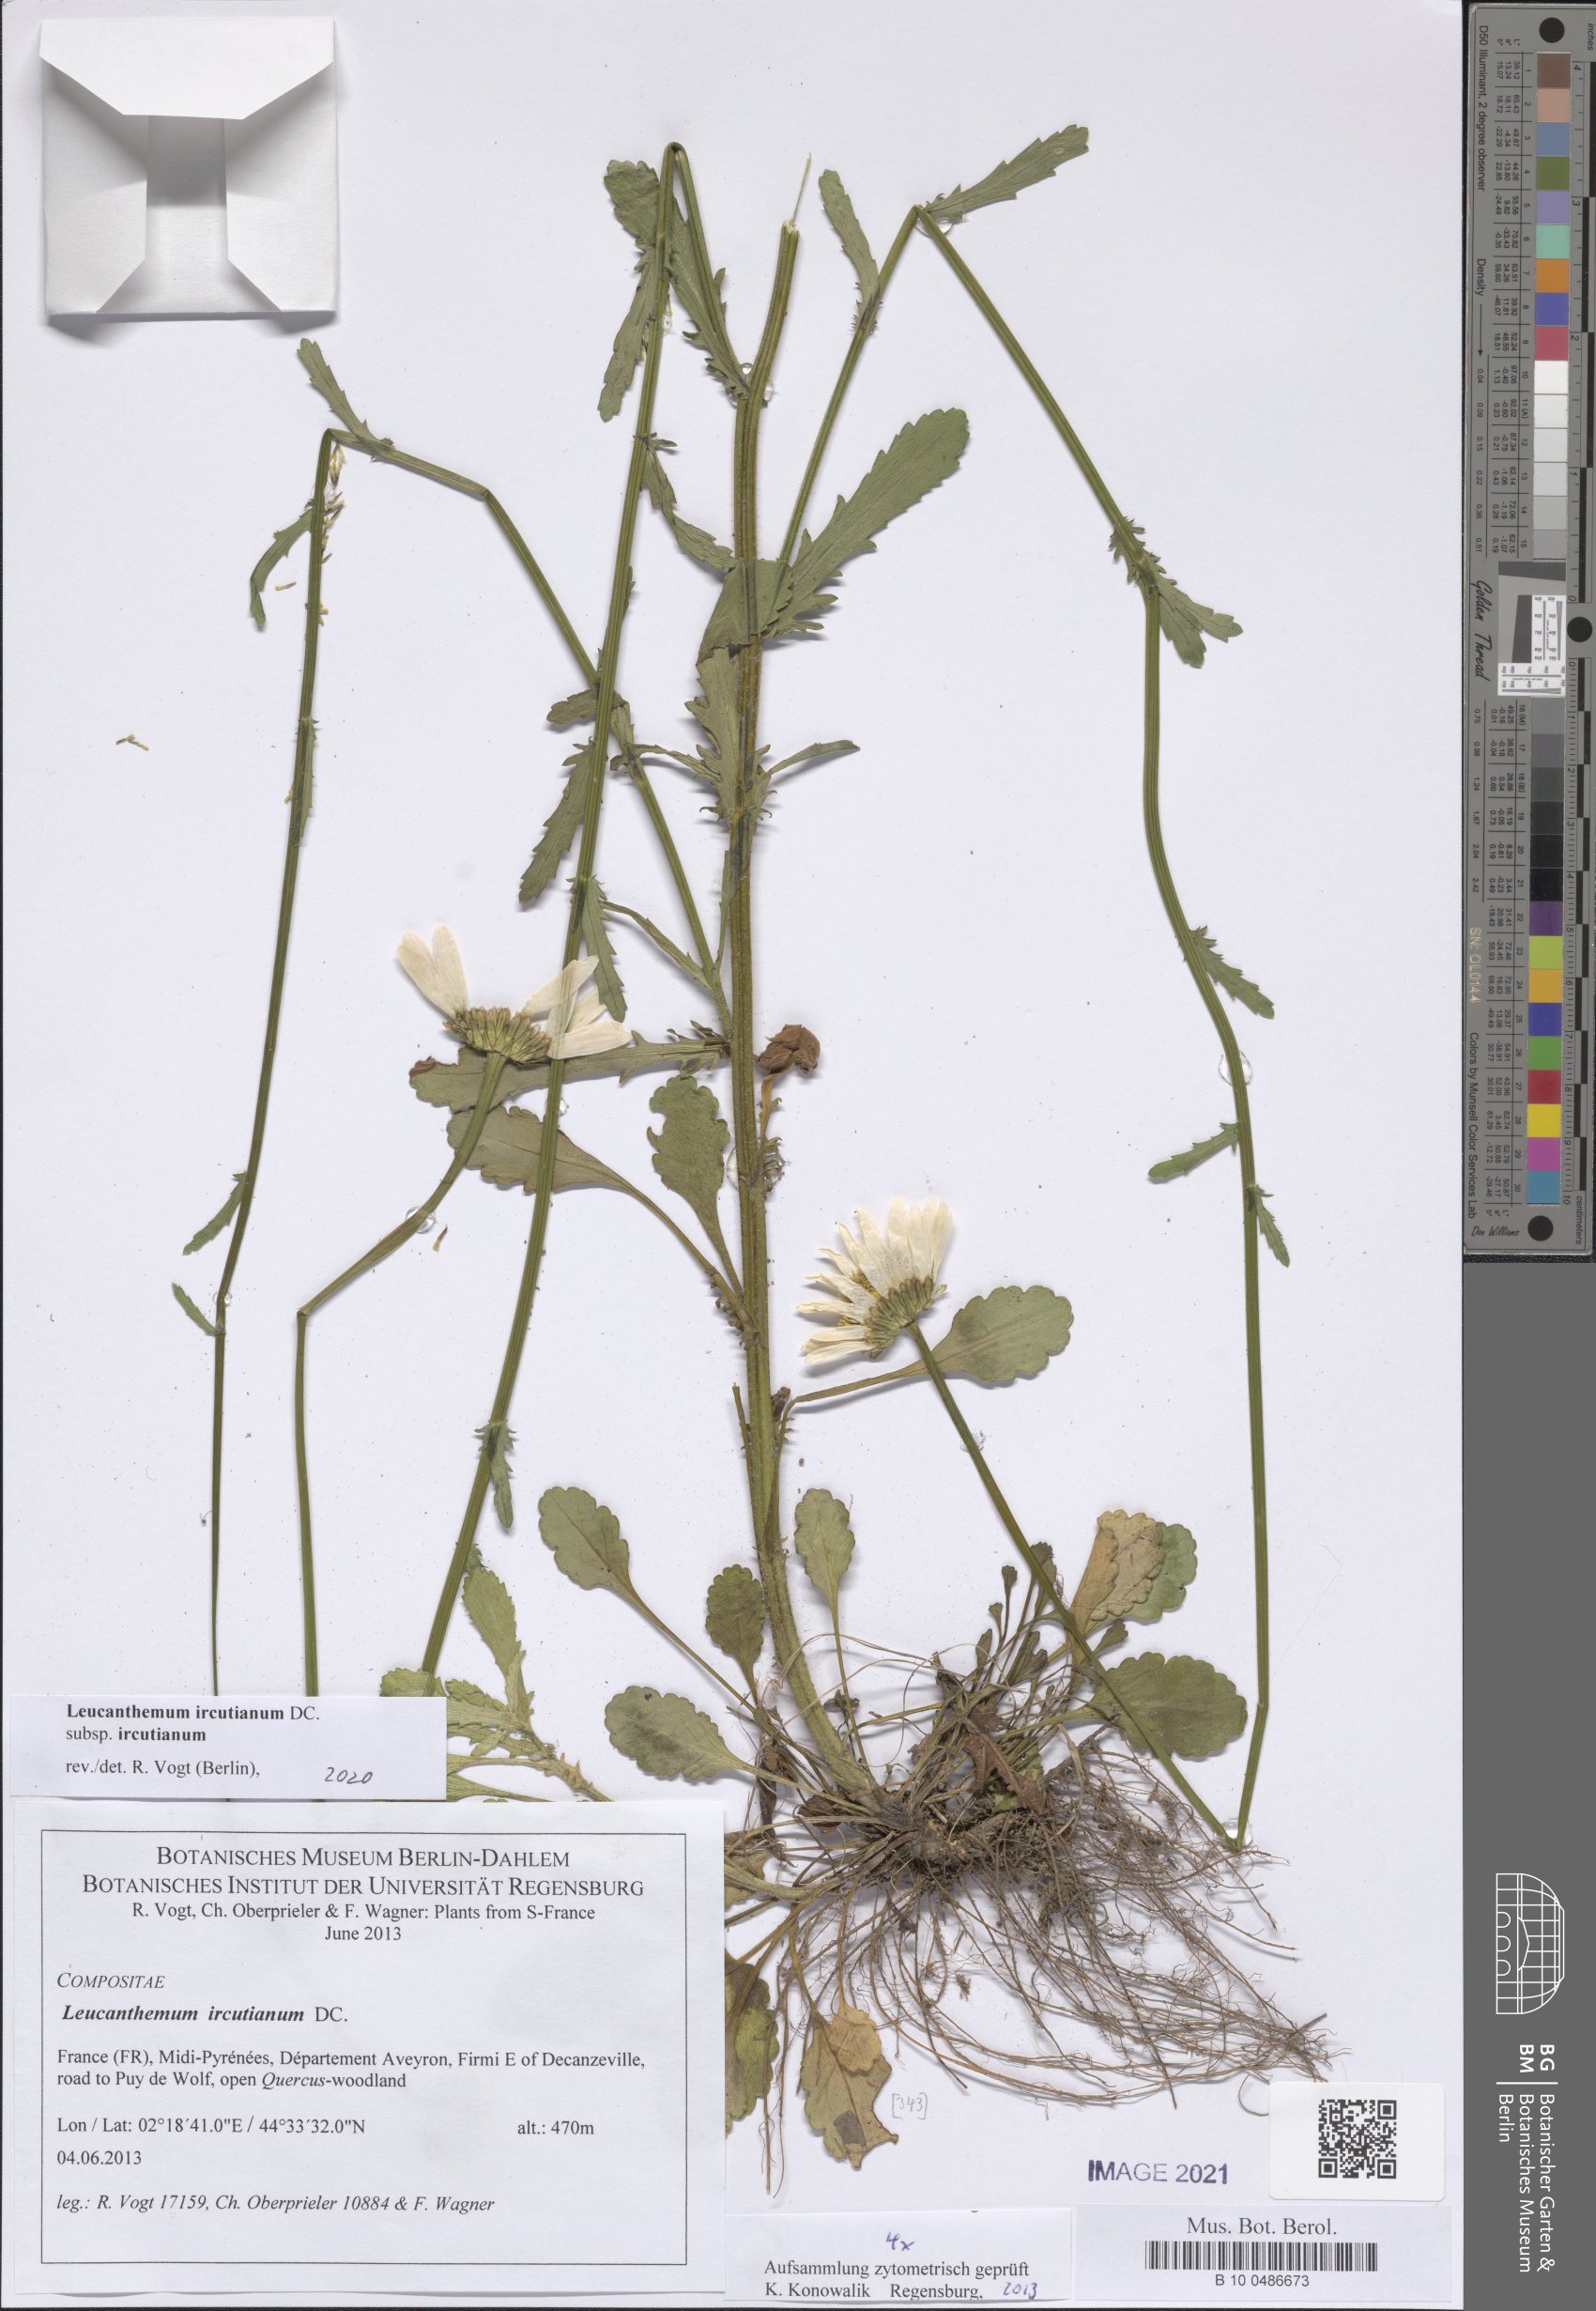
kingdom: Plantae
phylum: Tracheophyta
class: Magnoliopsida
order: Asterales
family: Asteraceae
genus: Leucanthemum
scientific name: Leucanthemum ircutianum
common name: Daisy
